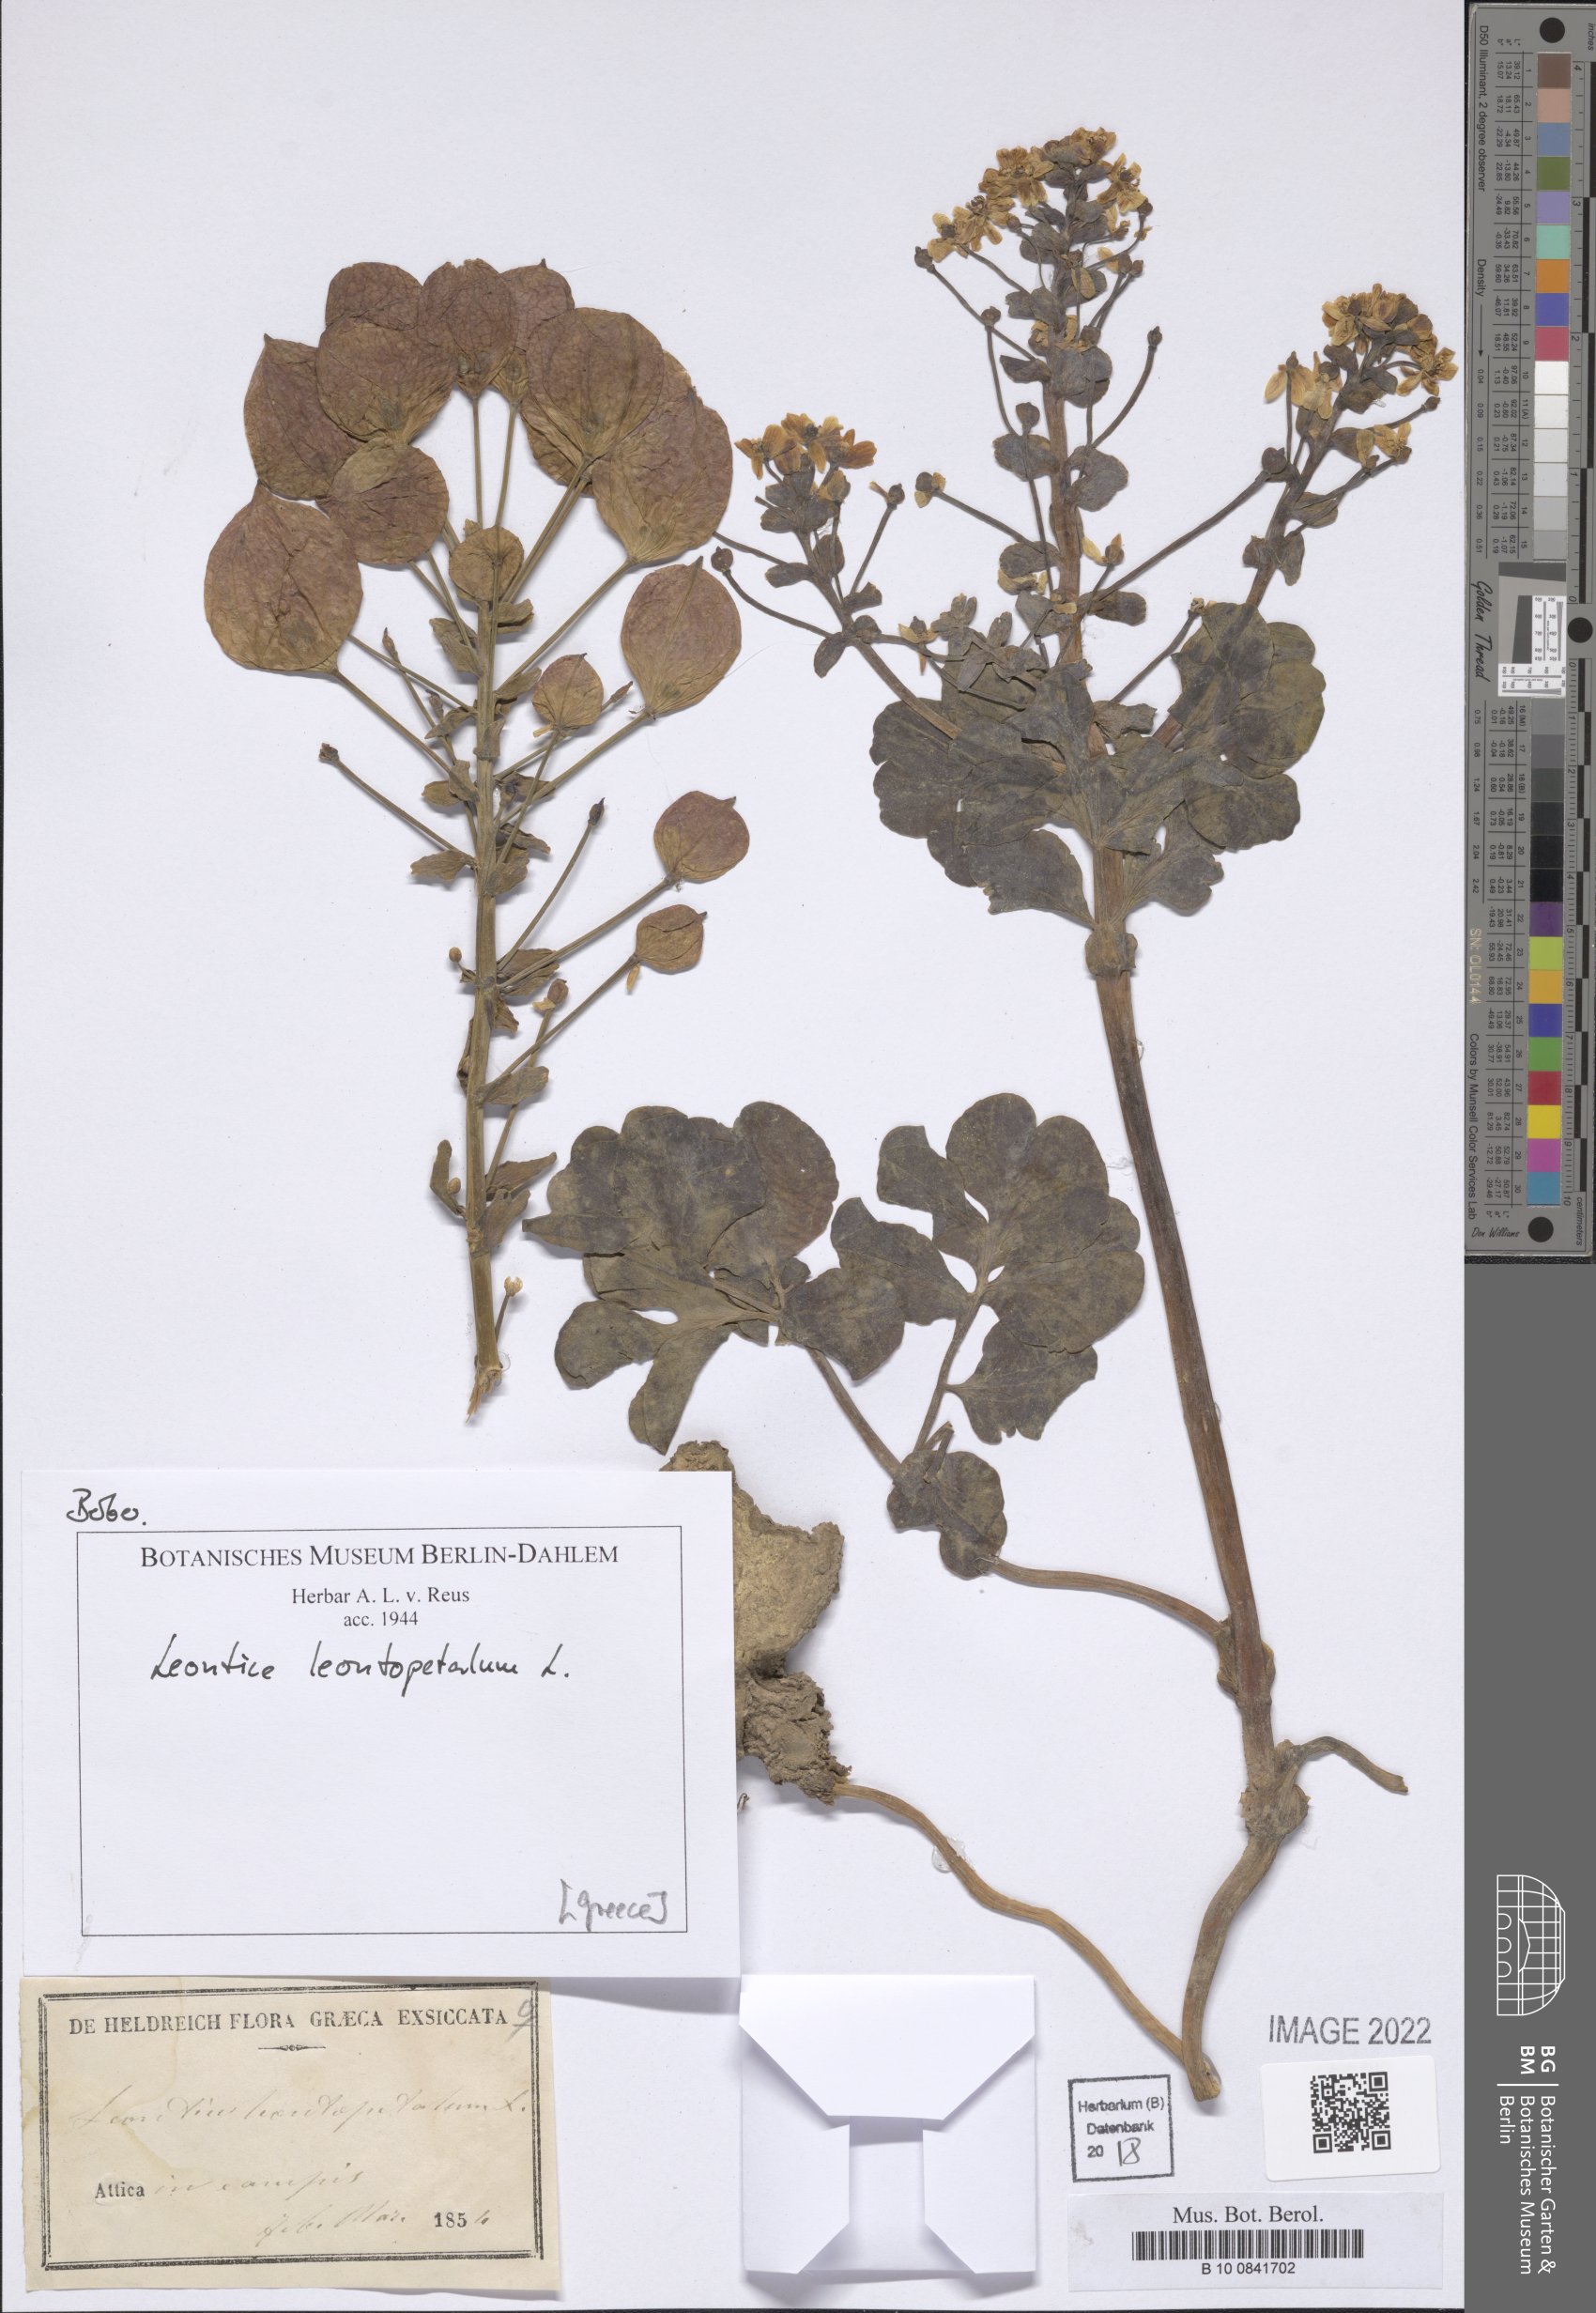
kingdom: Plantae
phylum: Tracheophyta
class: Magnoliopsida
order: Ranunculales
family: Berberidaceae
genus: Leontice
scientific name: Leontice leontopetalum
